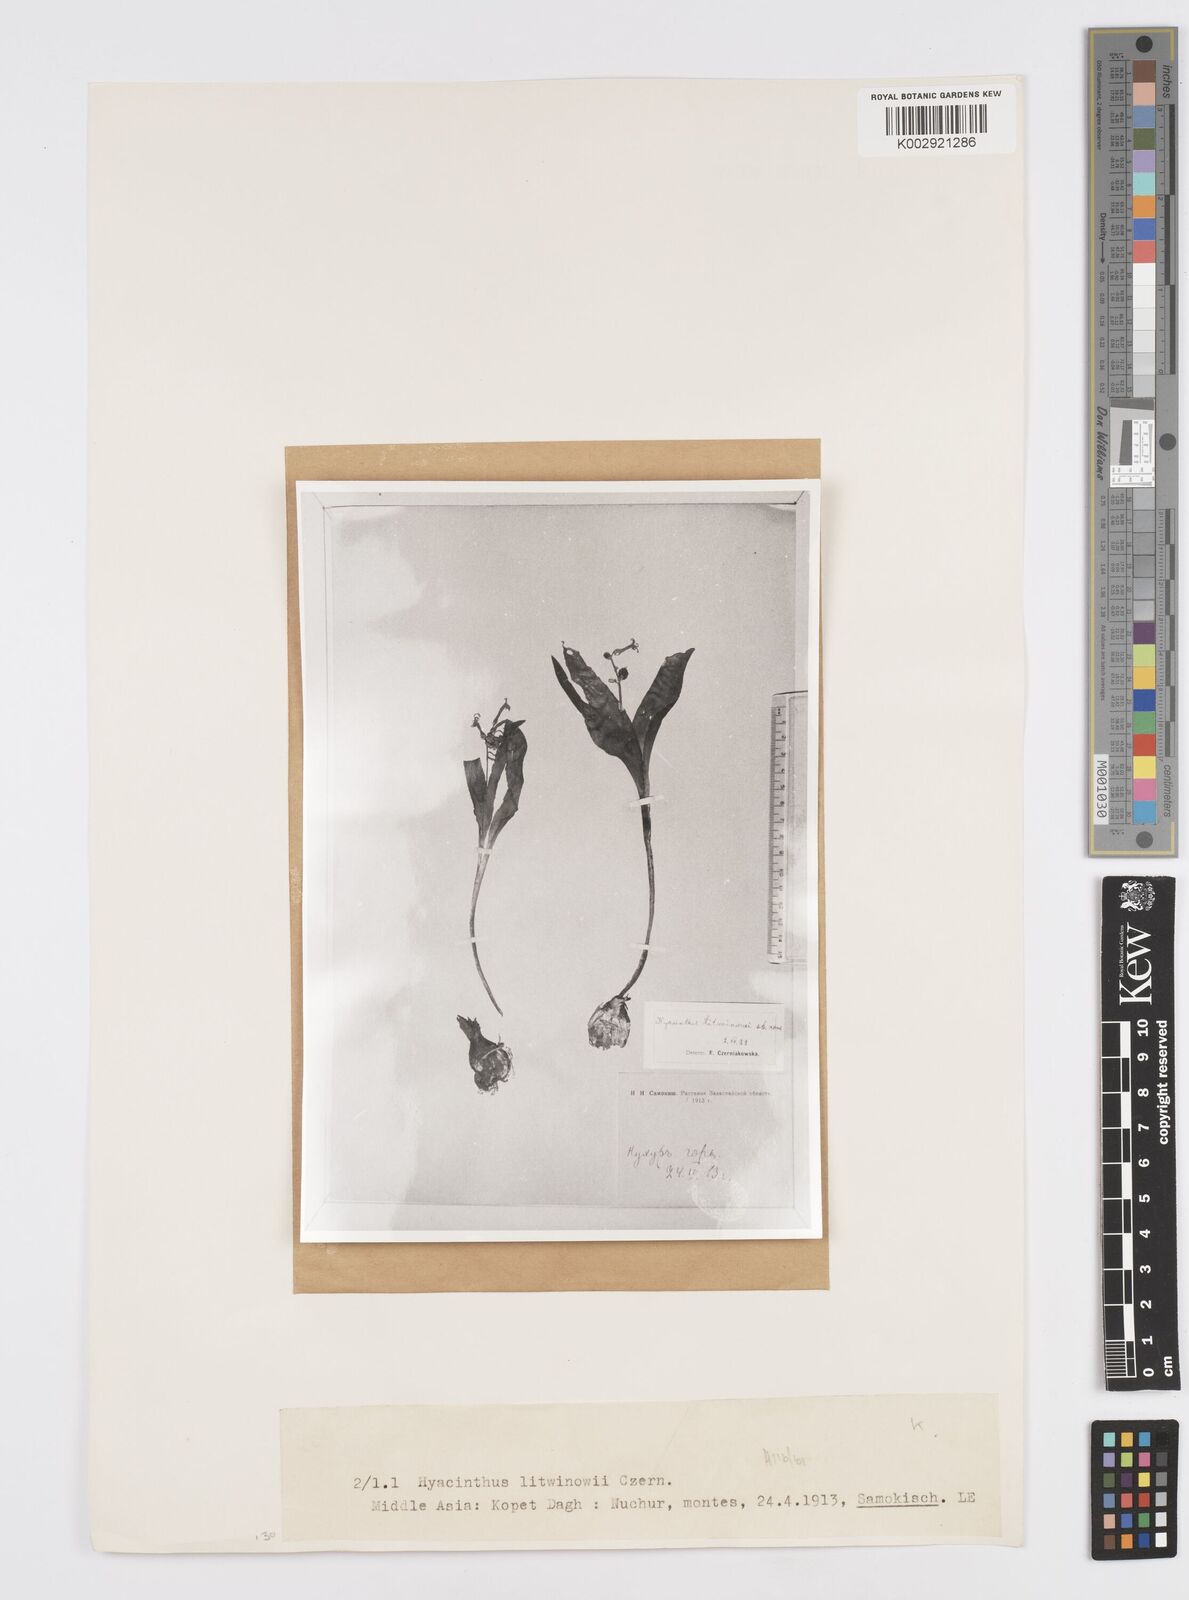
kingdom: Plantae
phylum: Tracheophyta
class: Liliopsida
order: Asparagales
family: Asparagaceae
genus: Hyacinthus
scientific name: Hyacinthus litwinowii
